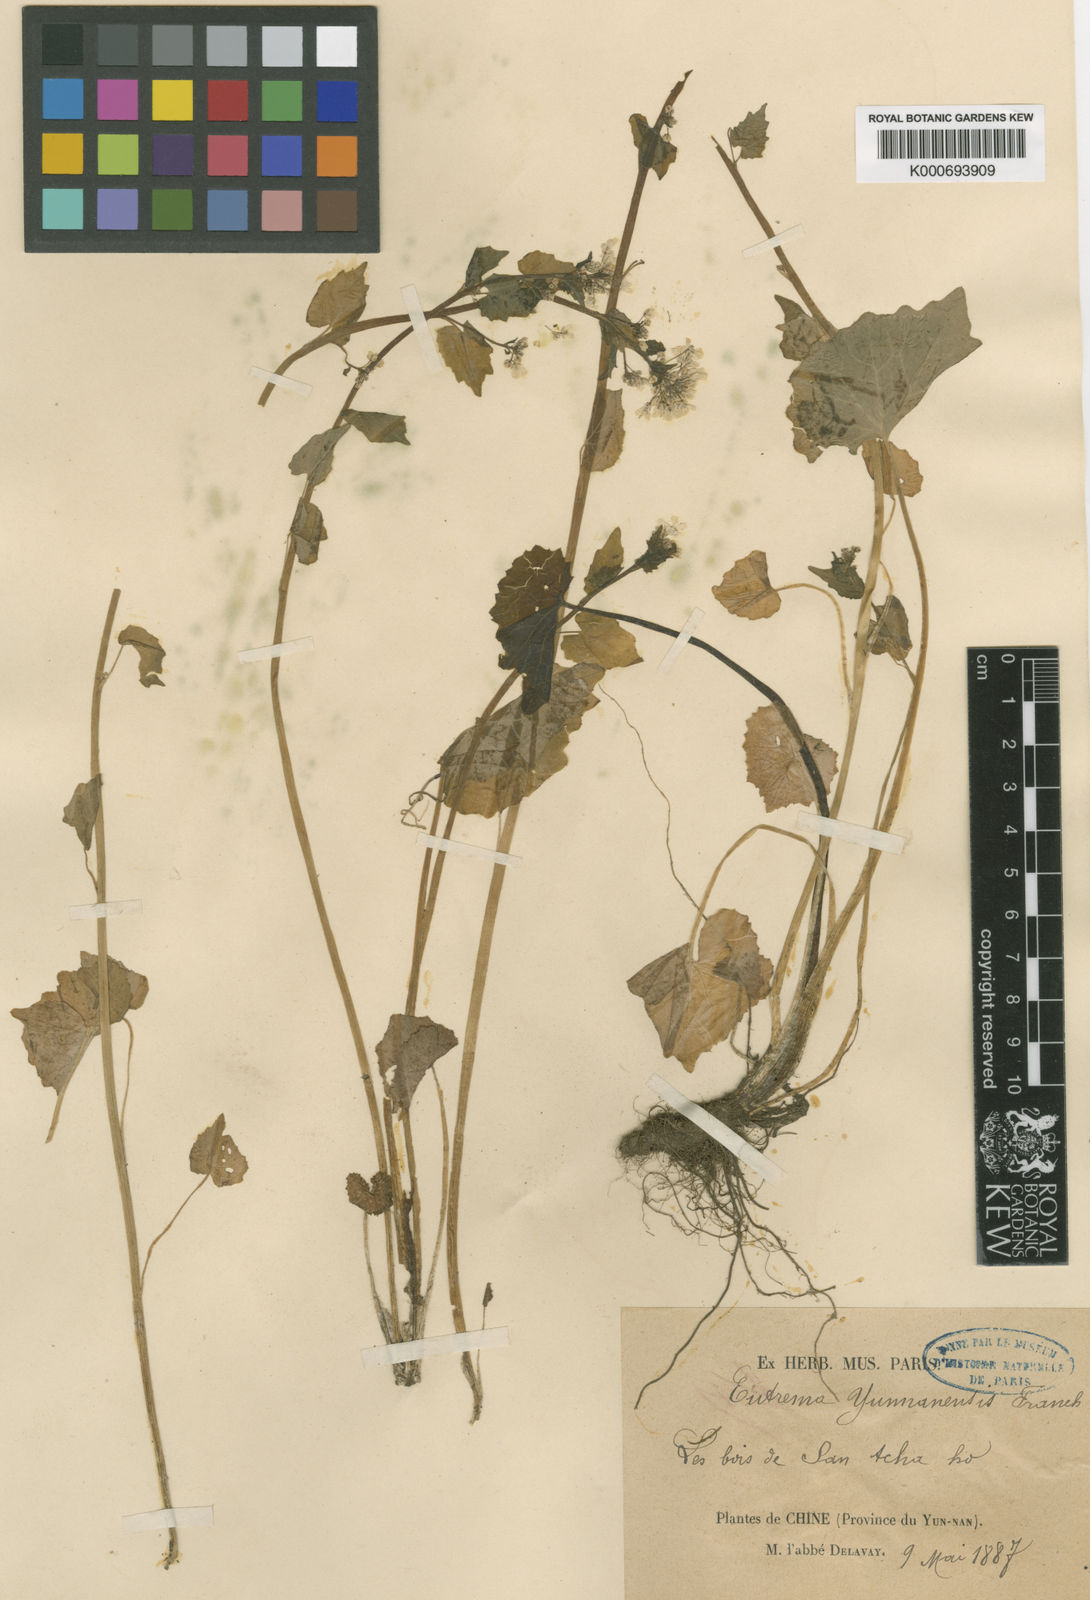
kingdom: Plantae
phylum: Tracheophyta
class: Magnoliopsida
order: Brassicales
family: Brassicaceae
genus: Eutrema
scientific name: Eutrema yunnanense
